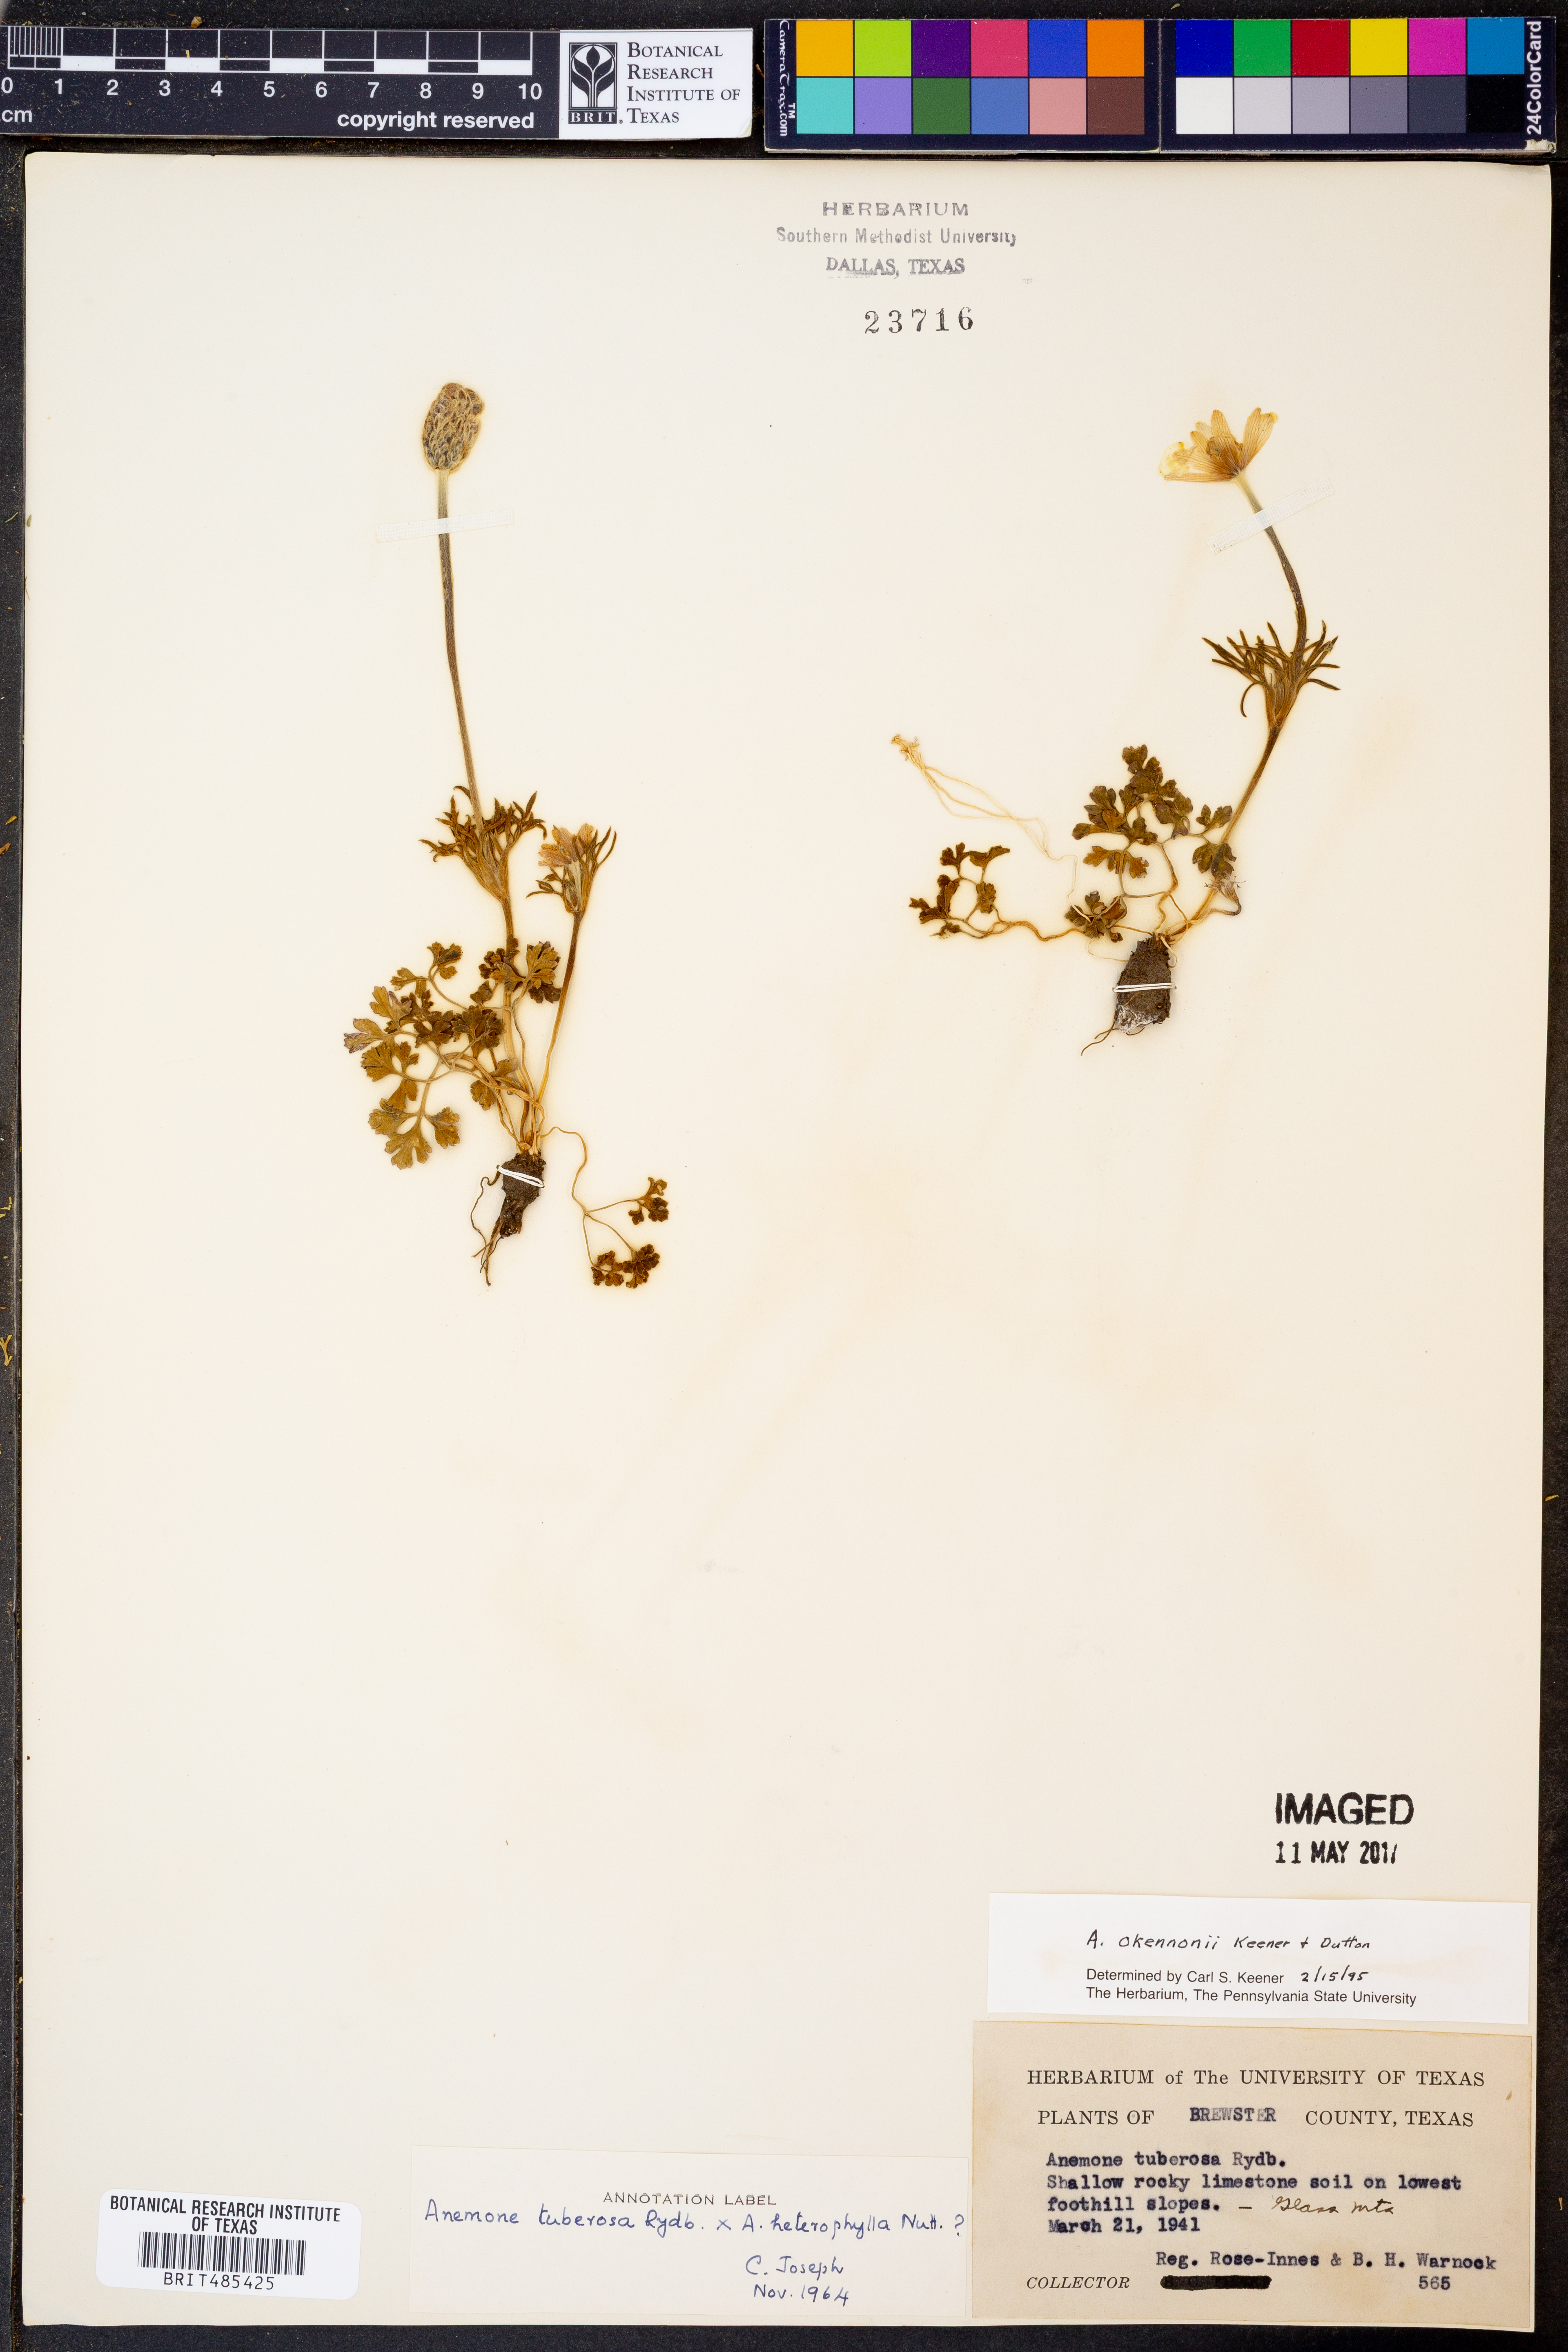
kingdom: Plantae
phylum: Tracheophyta
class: Magnoliopsida
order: Ranunculales
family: Ranunculaceae
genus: Anemone
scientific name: Anemone tuberosa
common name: Desert anemone
